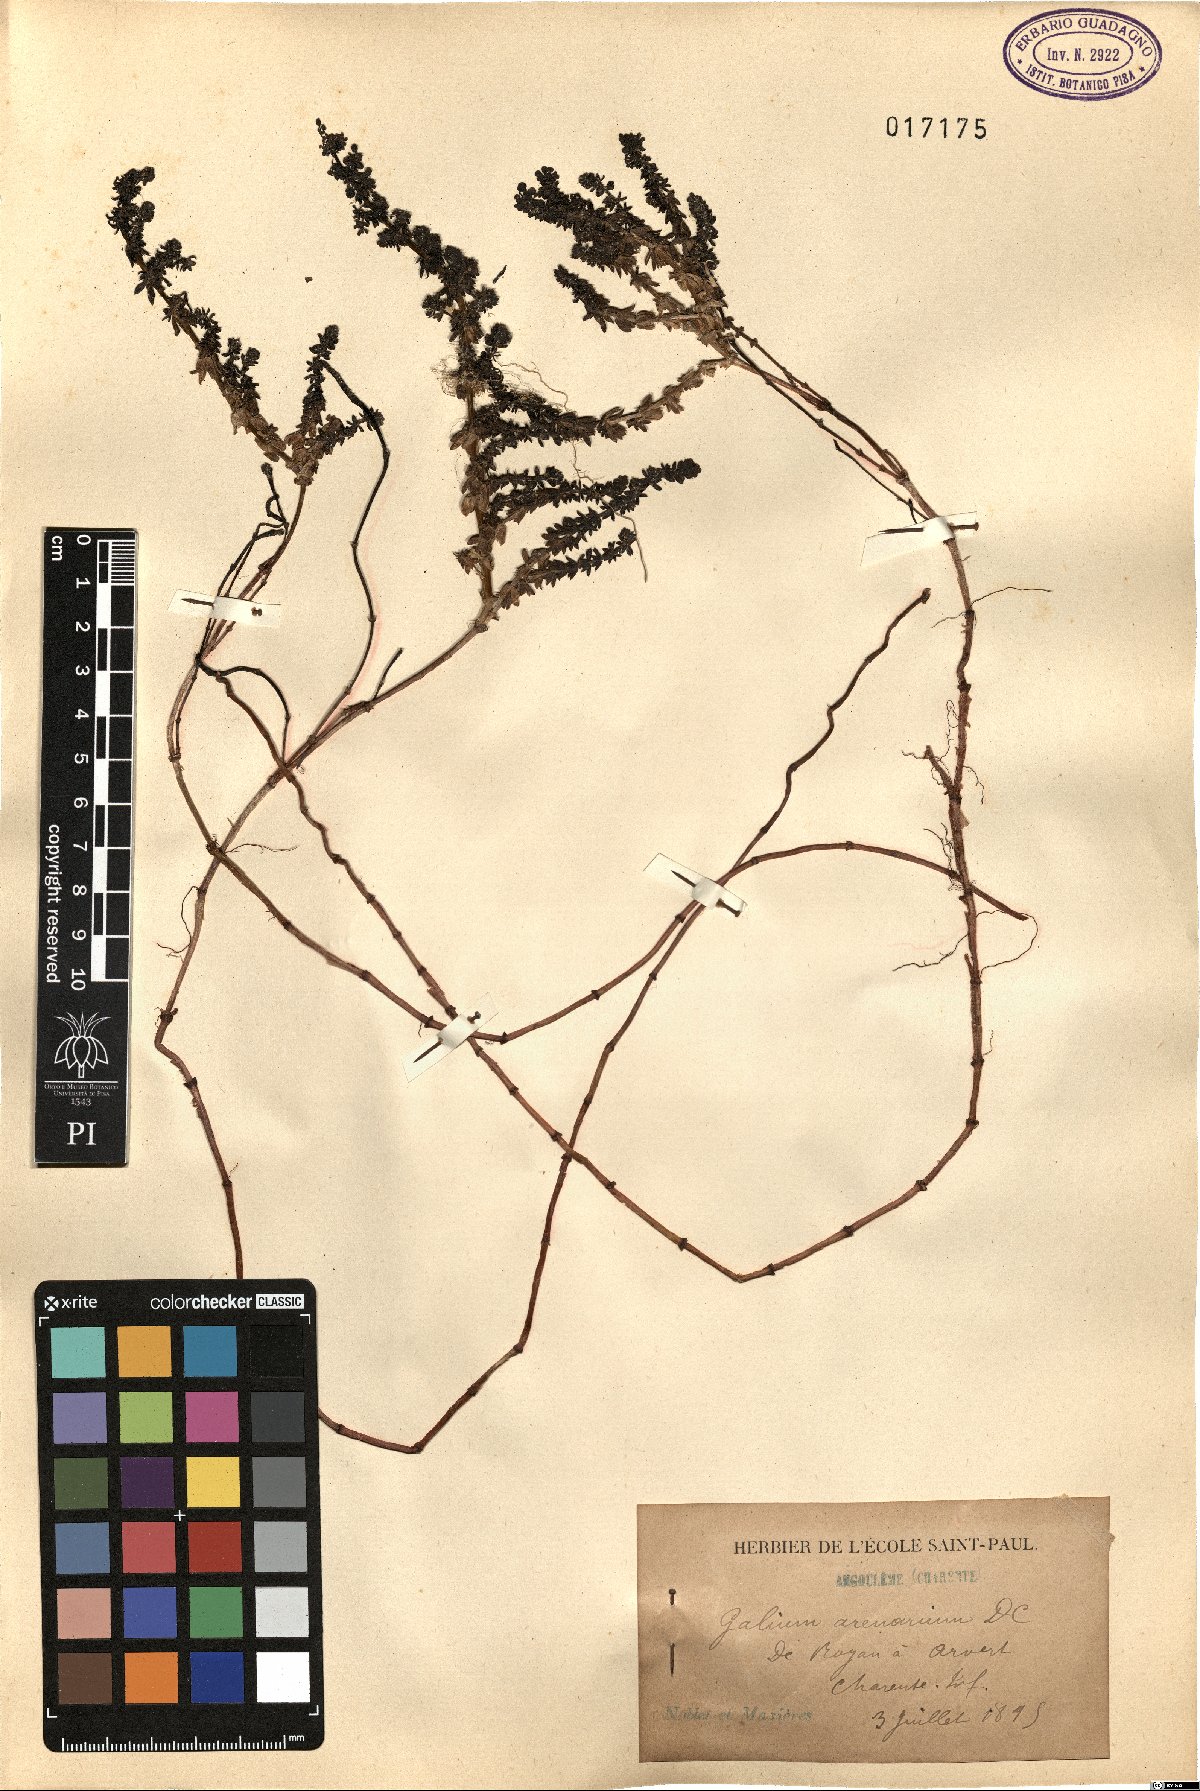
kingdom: Plantae
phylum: Tracheophyta
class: Magnoliopsida
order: Gentianales
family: Rubiaceae
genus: Galium
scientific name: Galium arenarium
